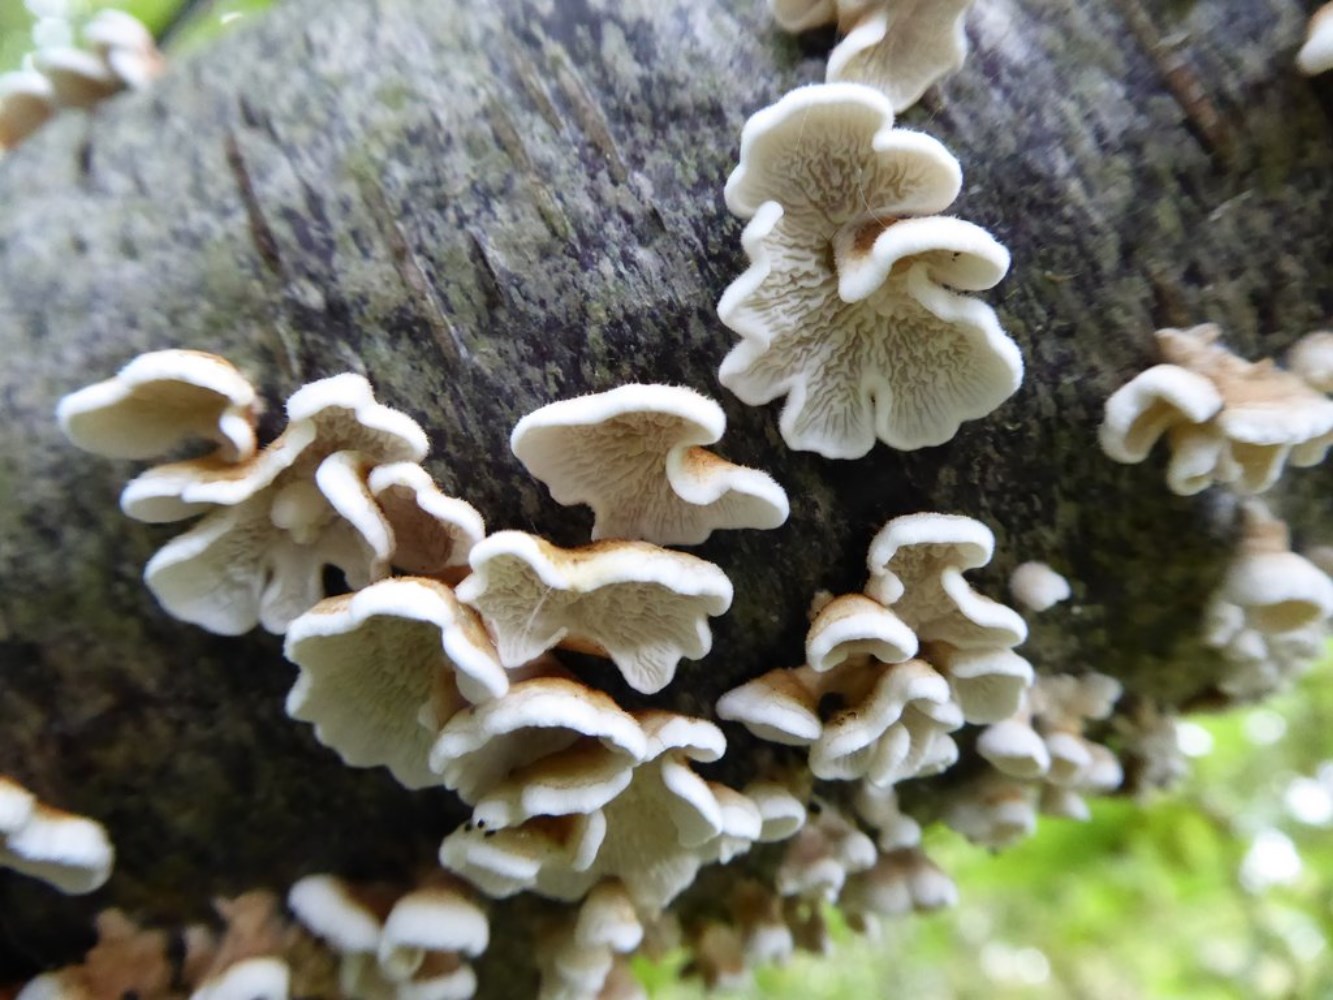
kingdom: Fungi
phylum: Basidiomycota
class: Agaricomycetes
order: Amylocorticiales
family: Amylocorticiaceae
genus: Plicaturopsis
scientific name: Plicaturopsis crispa
